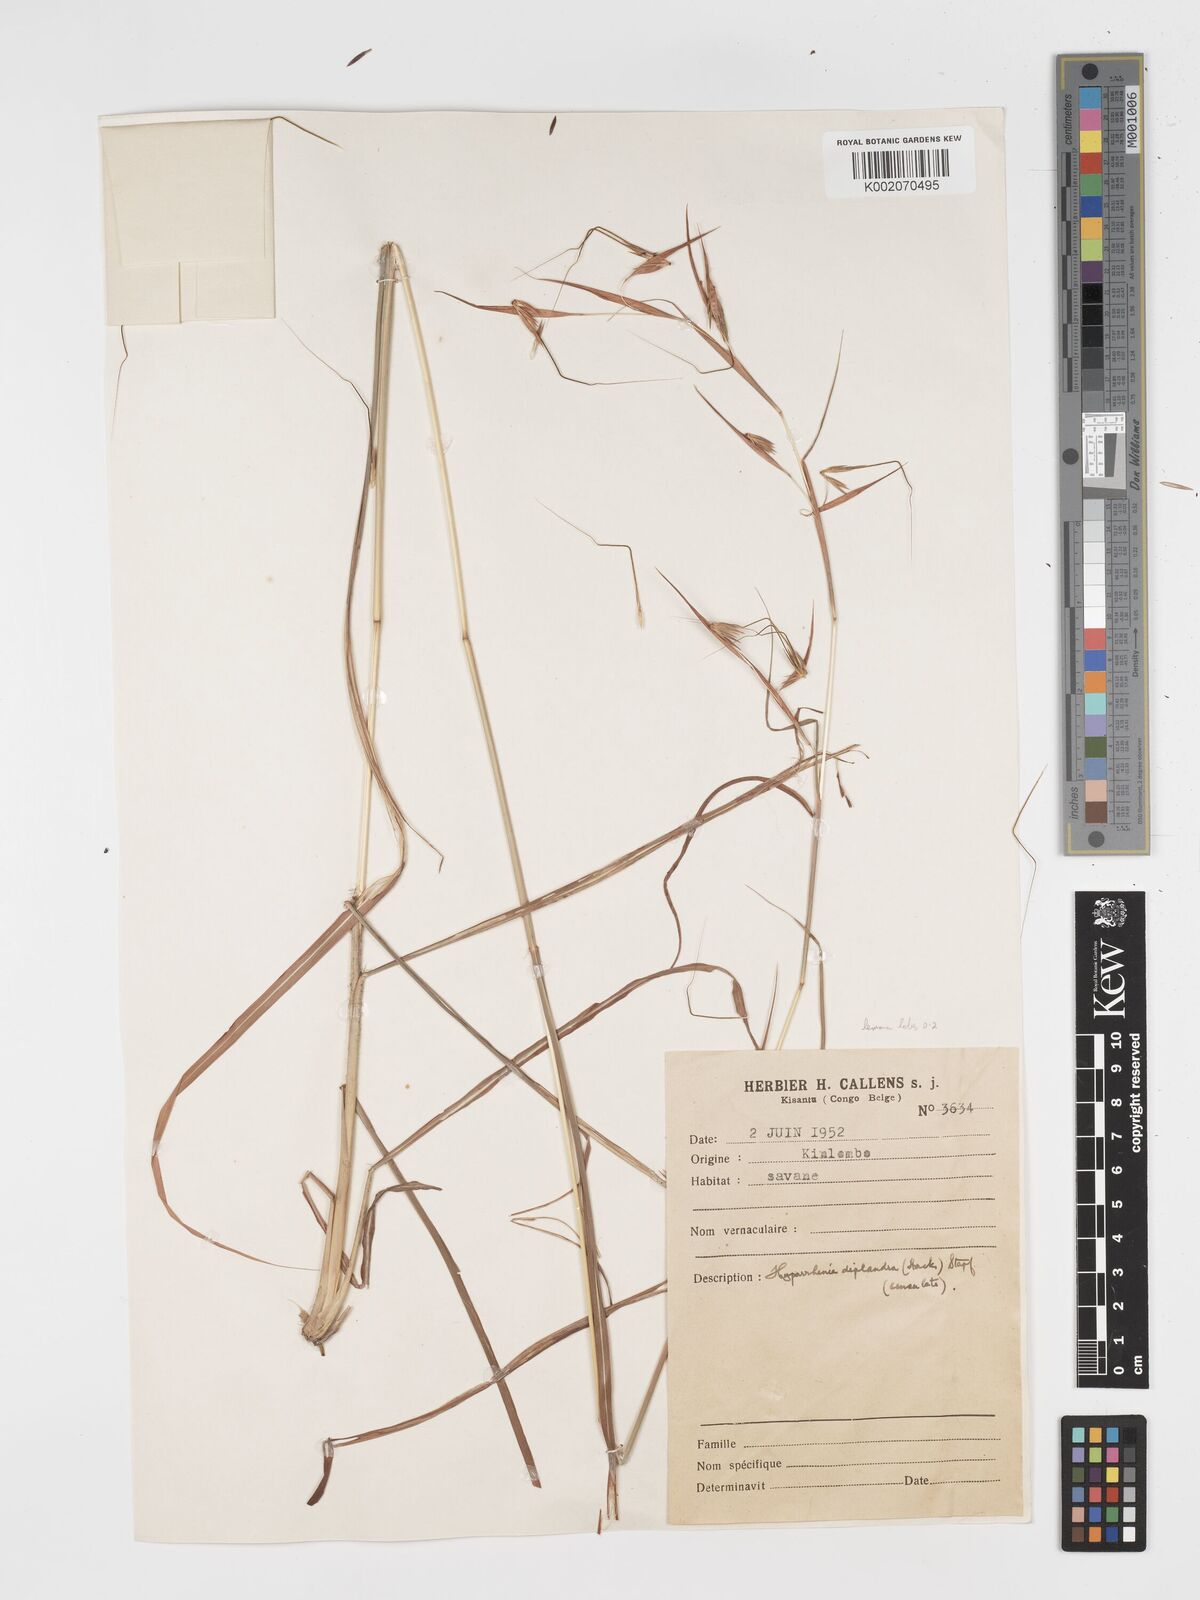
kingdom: Plantae
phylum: Tracheophyta
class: Liliopsida
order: Poales
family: Poaceae
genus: Hyparrhenia
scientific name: Hyparrhenia diplandra
